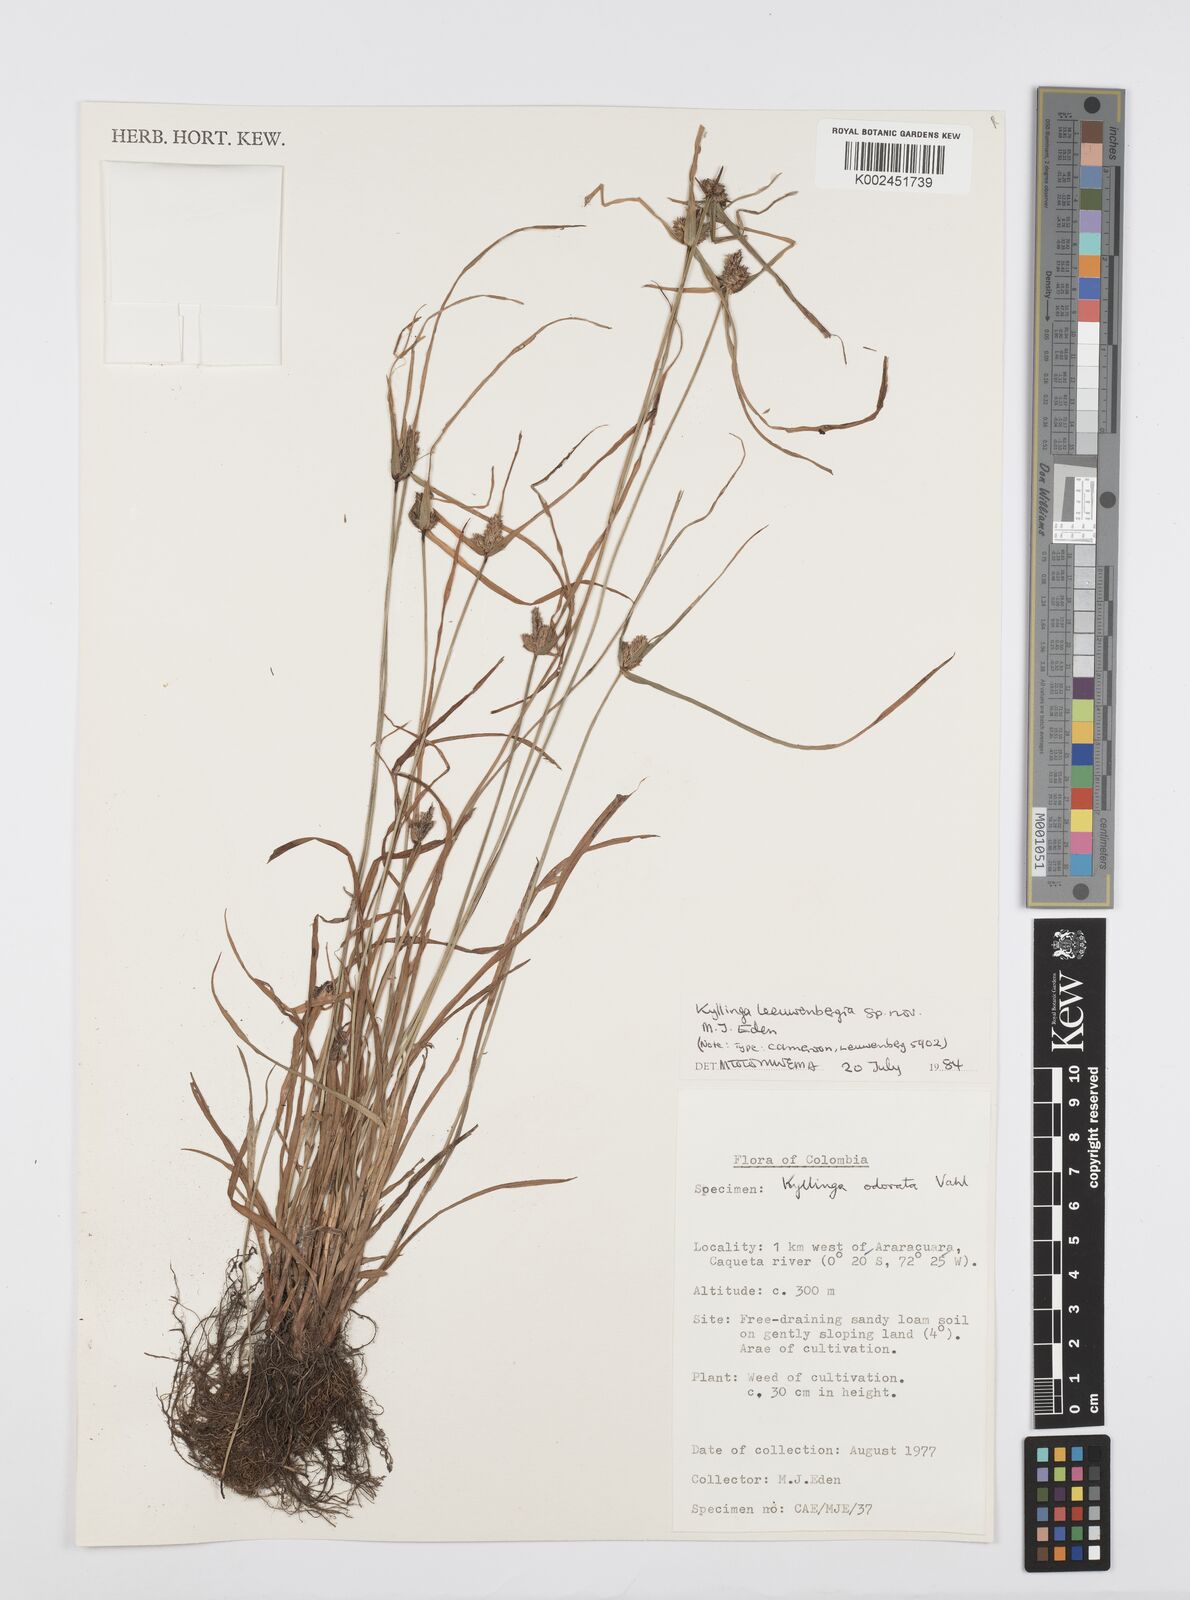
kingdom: Plantae
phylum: Tracheophyta
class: Liliopsida
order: Poales
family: Cyperaceae
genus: Cyperus
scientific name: Cyperus
